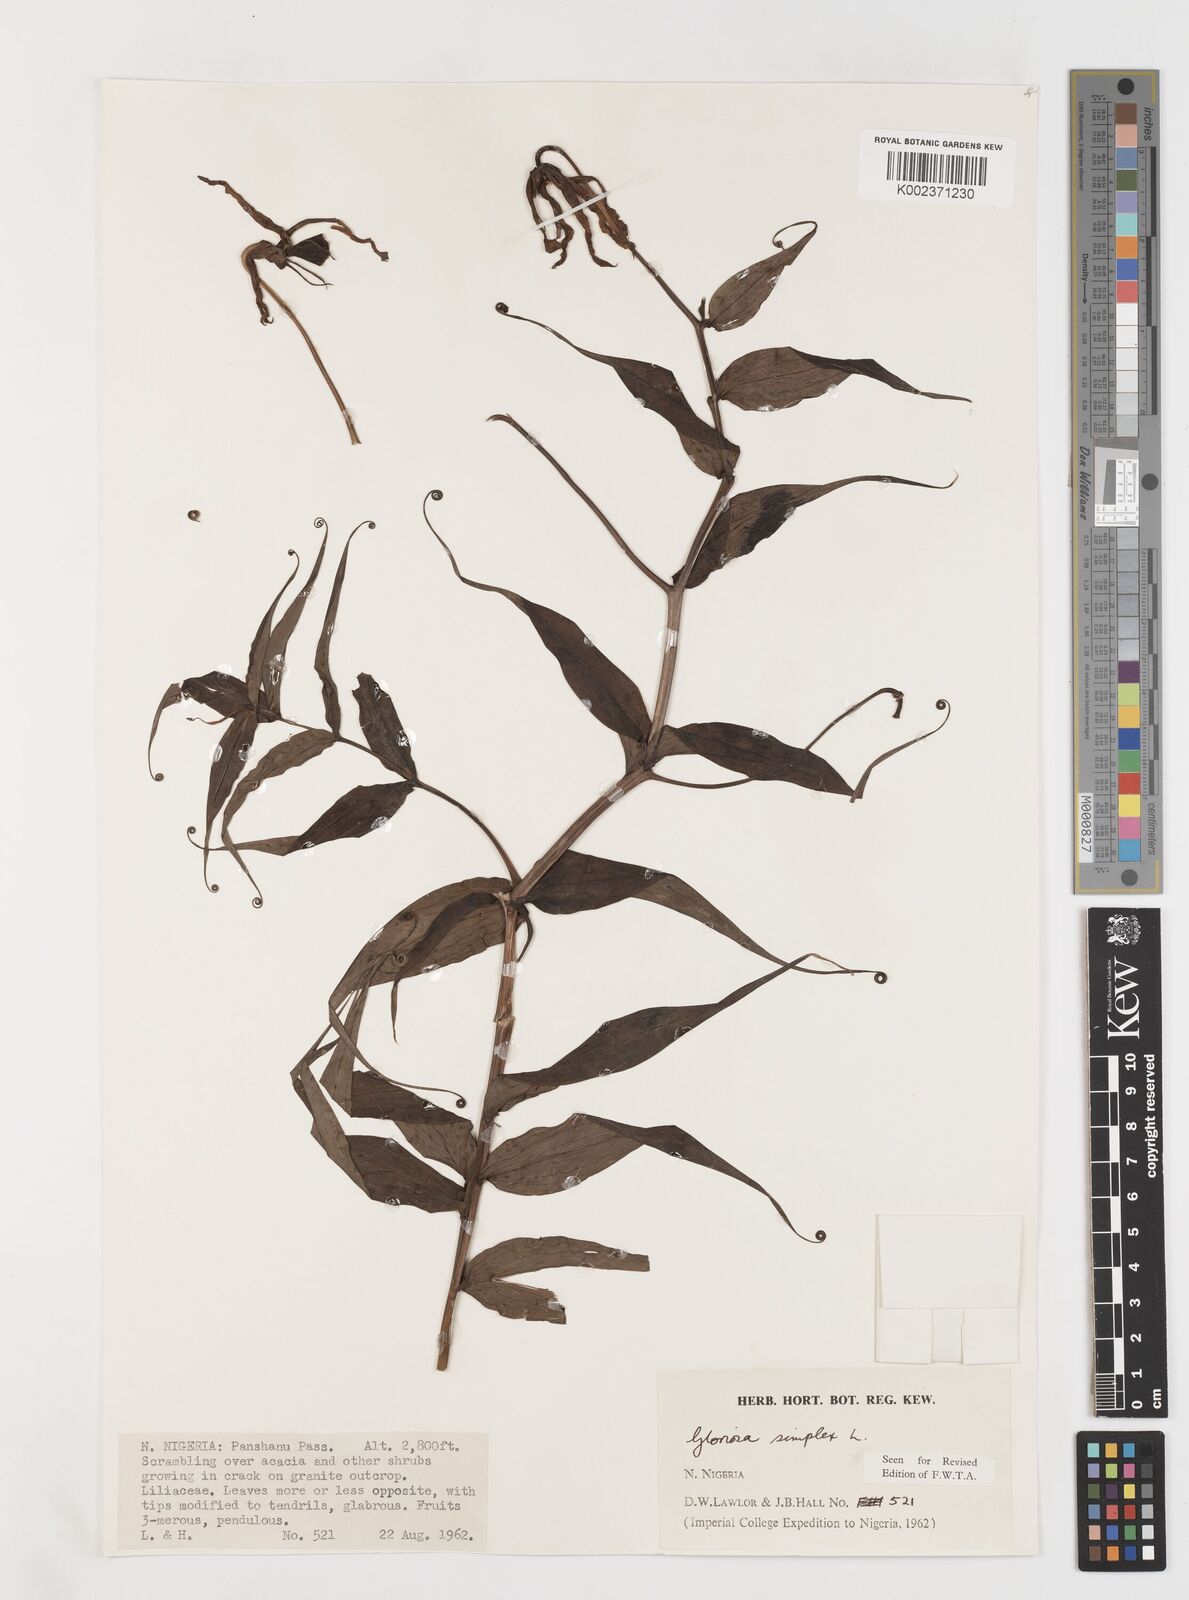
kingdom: Plantae
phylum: Tracheophyta
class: Liliopsida
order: Liliales
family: Colchicaceae
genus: Gloriosa
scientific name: Gloriosa superba
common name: Flame lily
